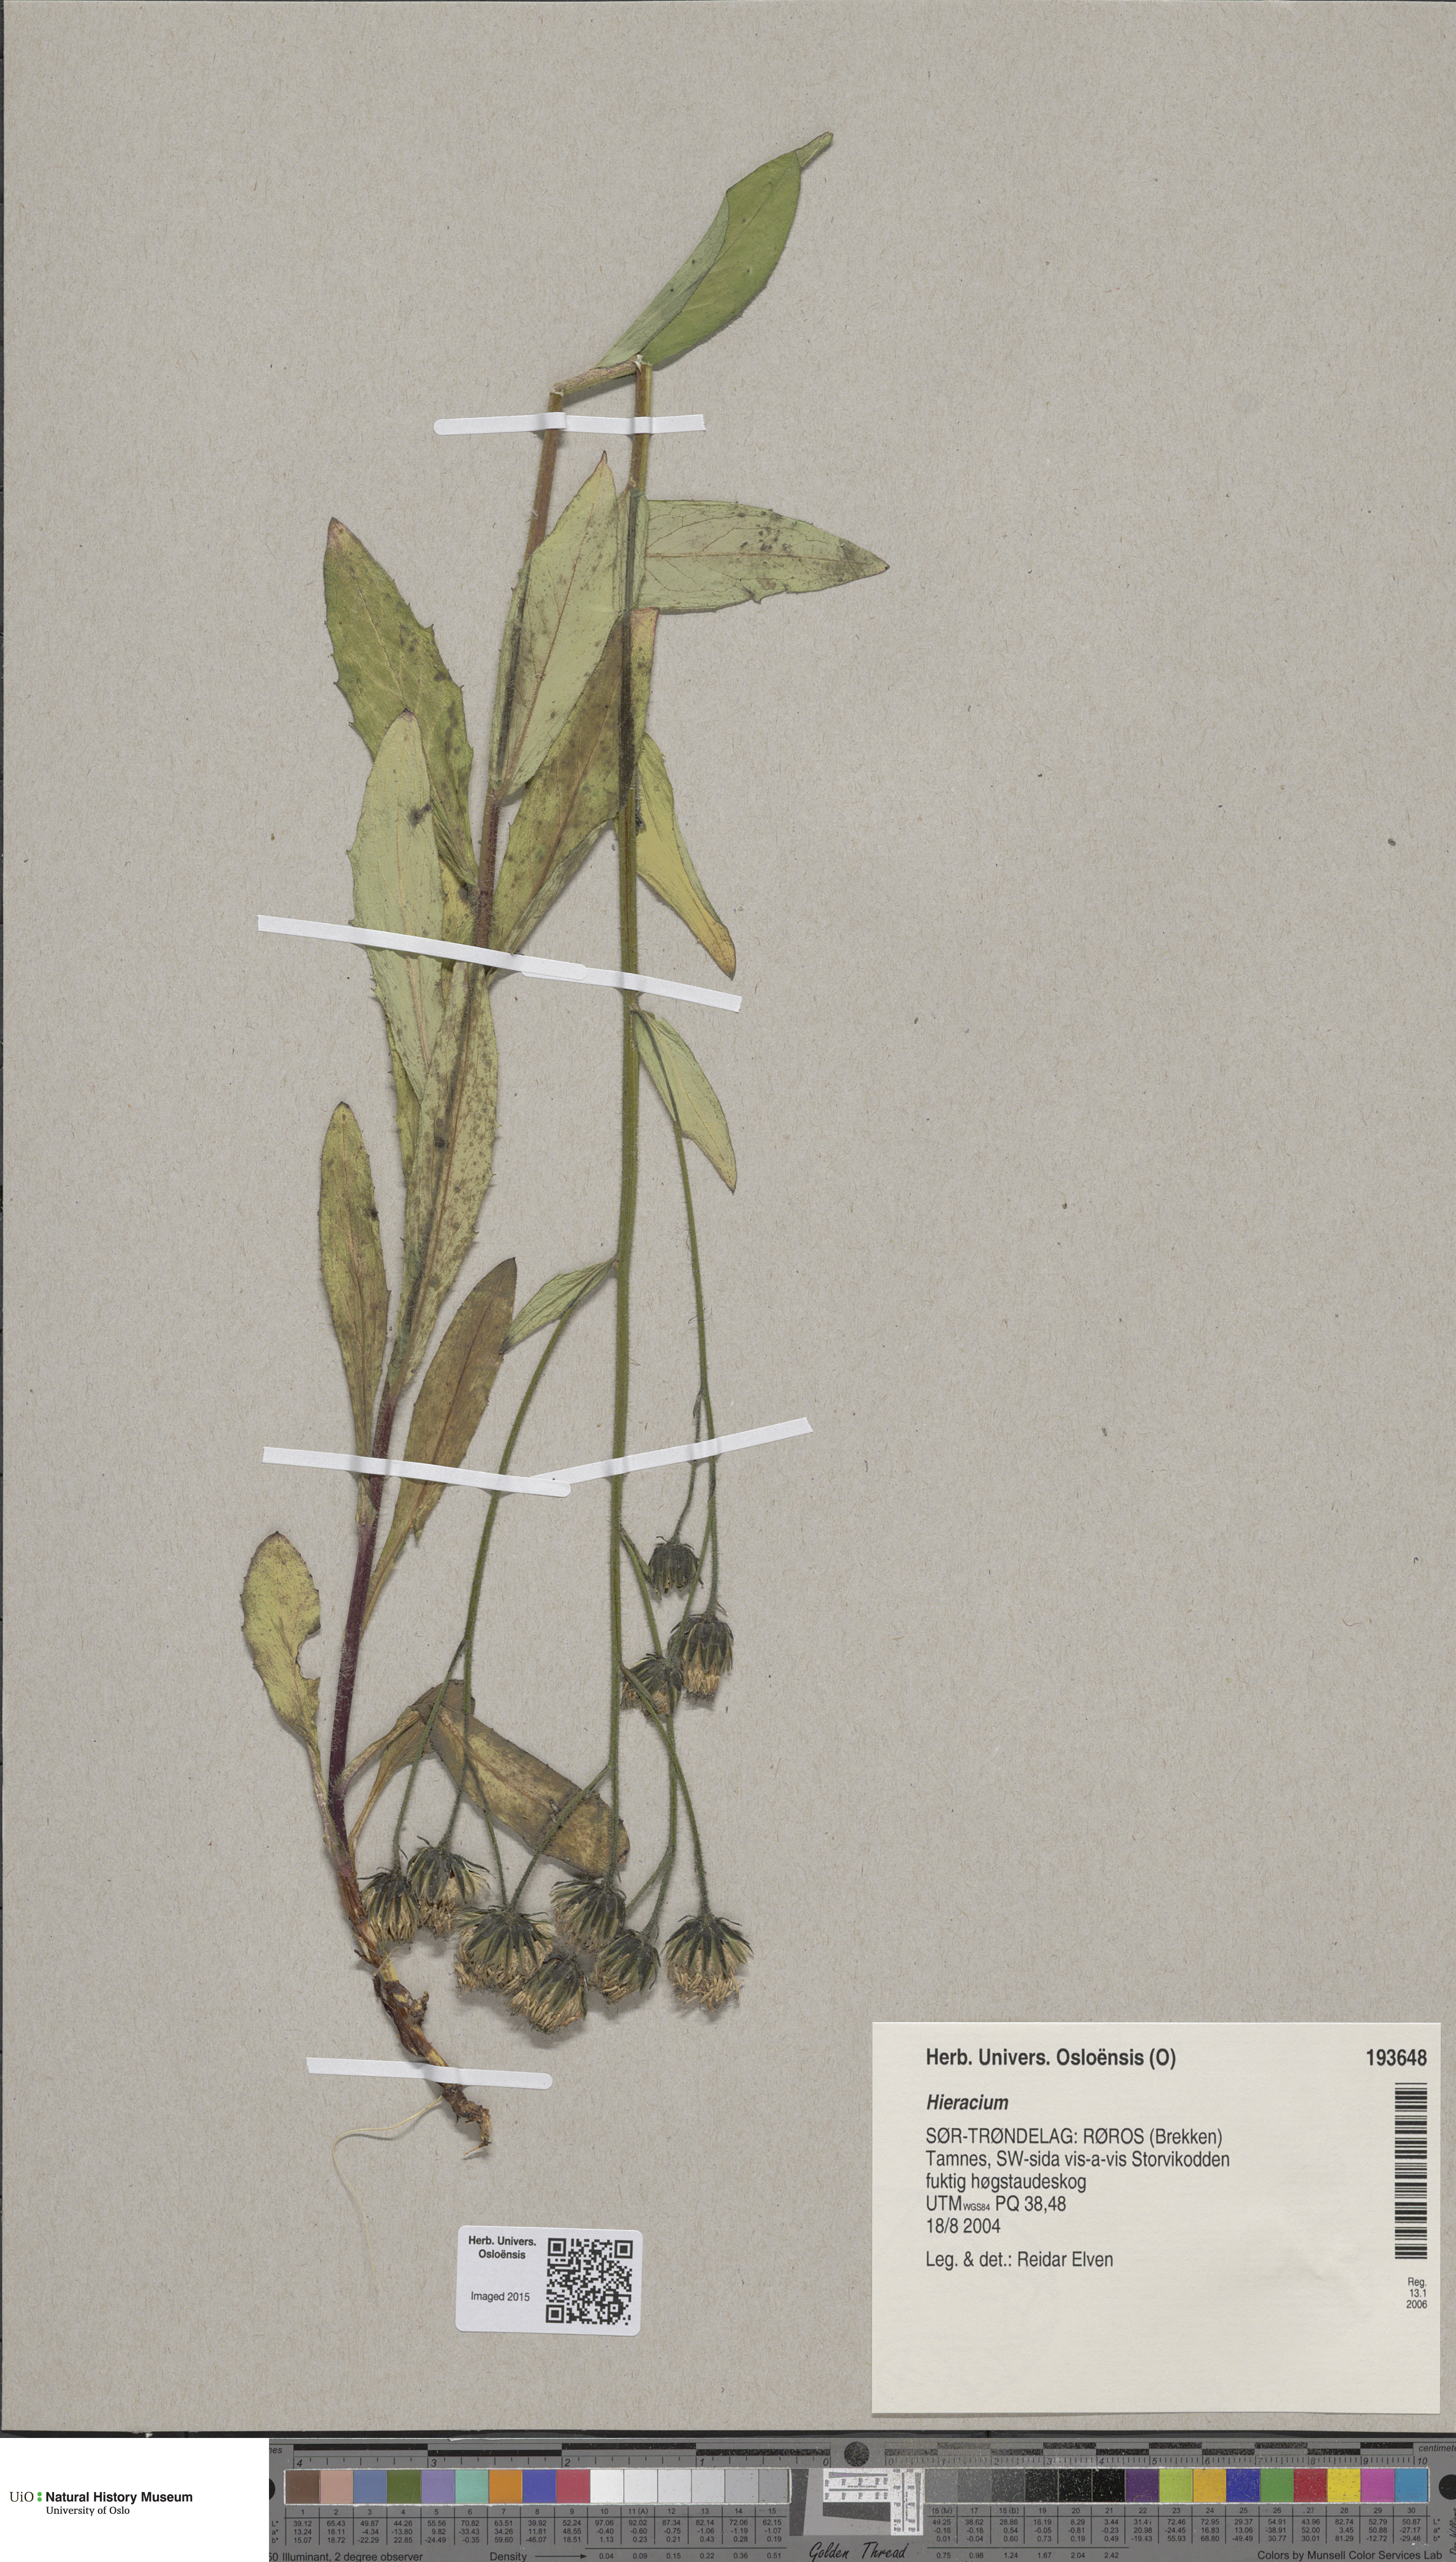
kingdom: Plantae
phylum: Tracheophyta
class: Magnoliopsida
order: Asterales
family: Asteraceae
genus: Hieracium
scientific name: Hieracium
